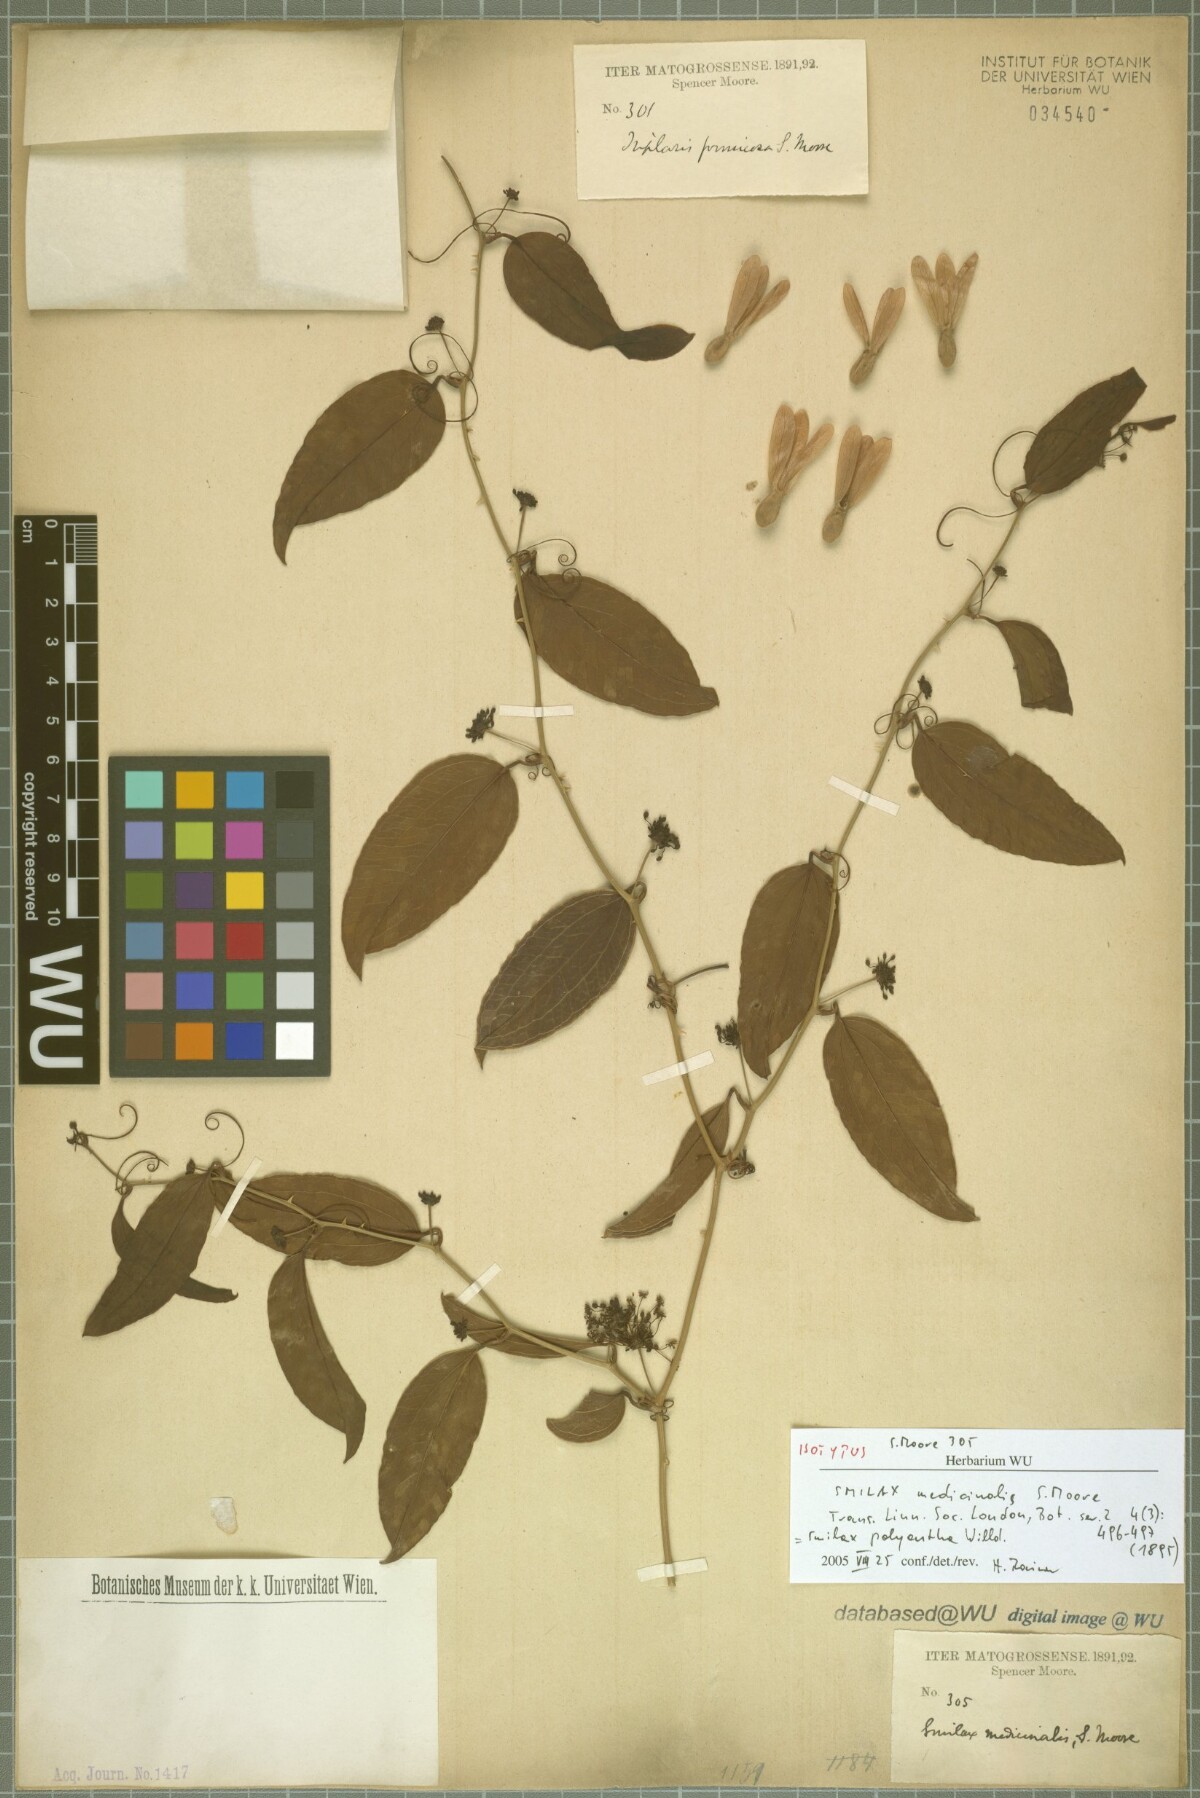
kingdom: Plantae
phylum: Tracheophyta
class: Liliopsida
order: Liliales
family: Smilacaceae
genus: Smilax
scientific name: Smilax polyantha
